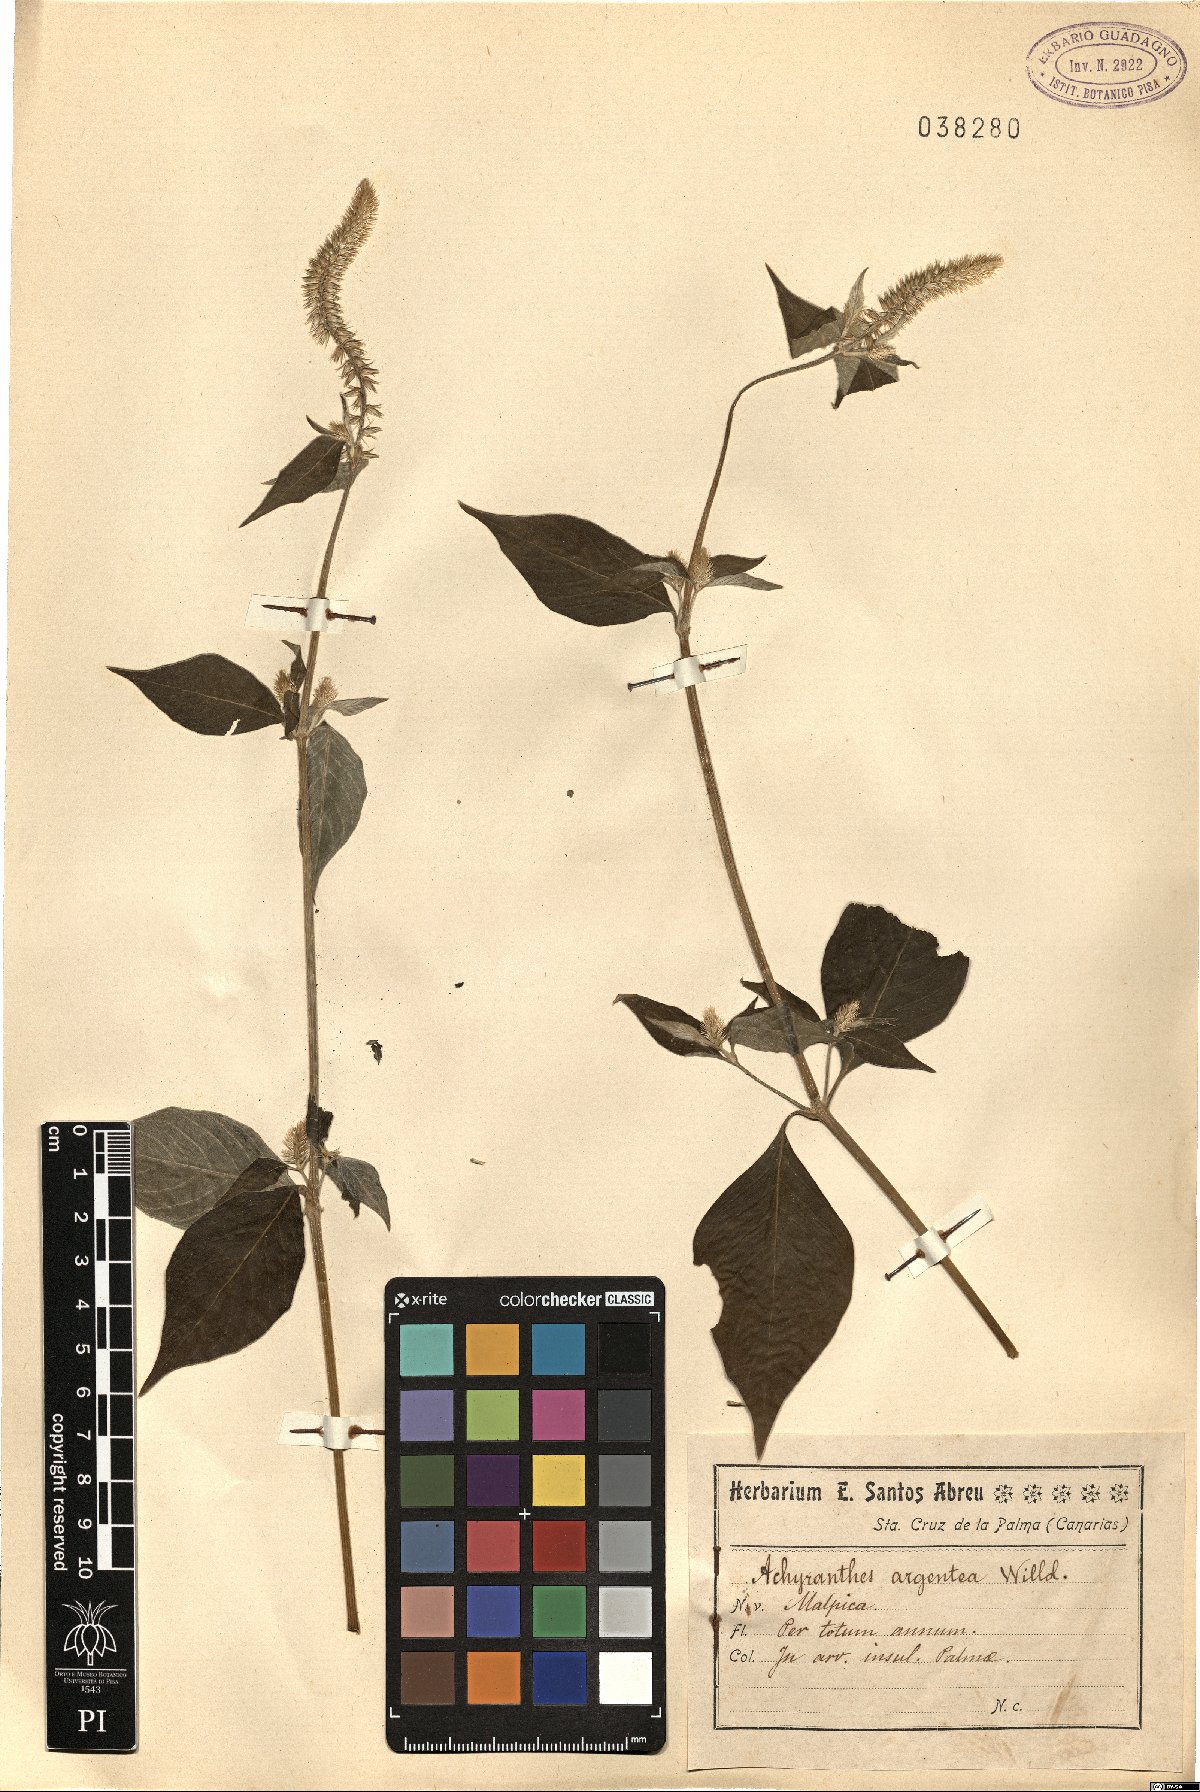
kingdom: Plantae
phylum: Tracheophyta
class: Magnoliopsida
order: Caryophyllales
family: Amaranthaceae
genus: Achyranthes
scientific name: Achyranthes sicula
